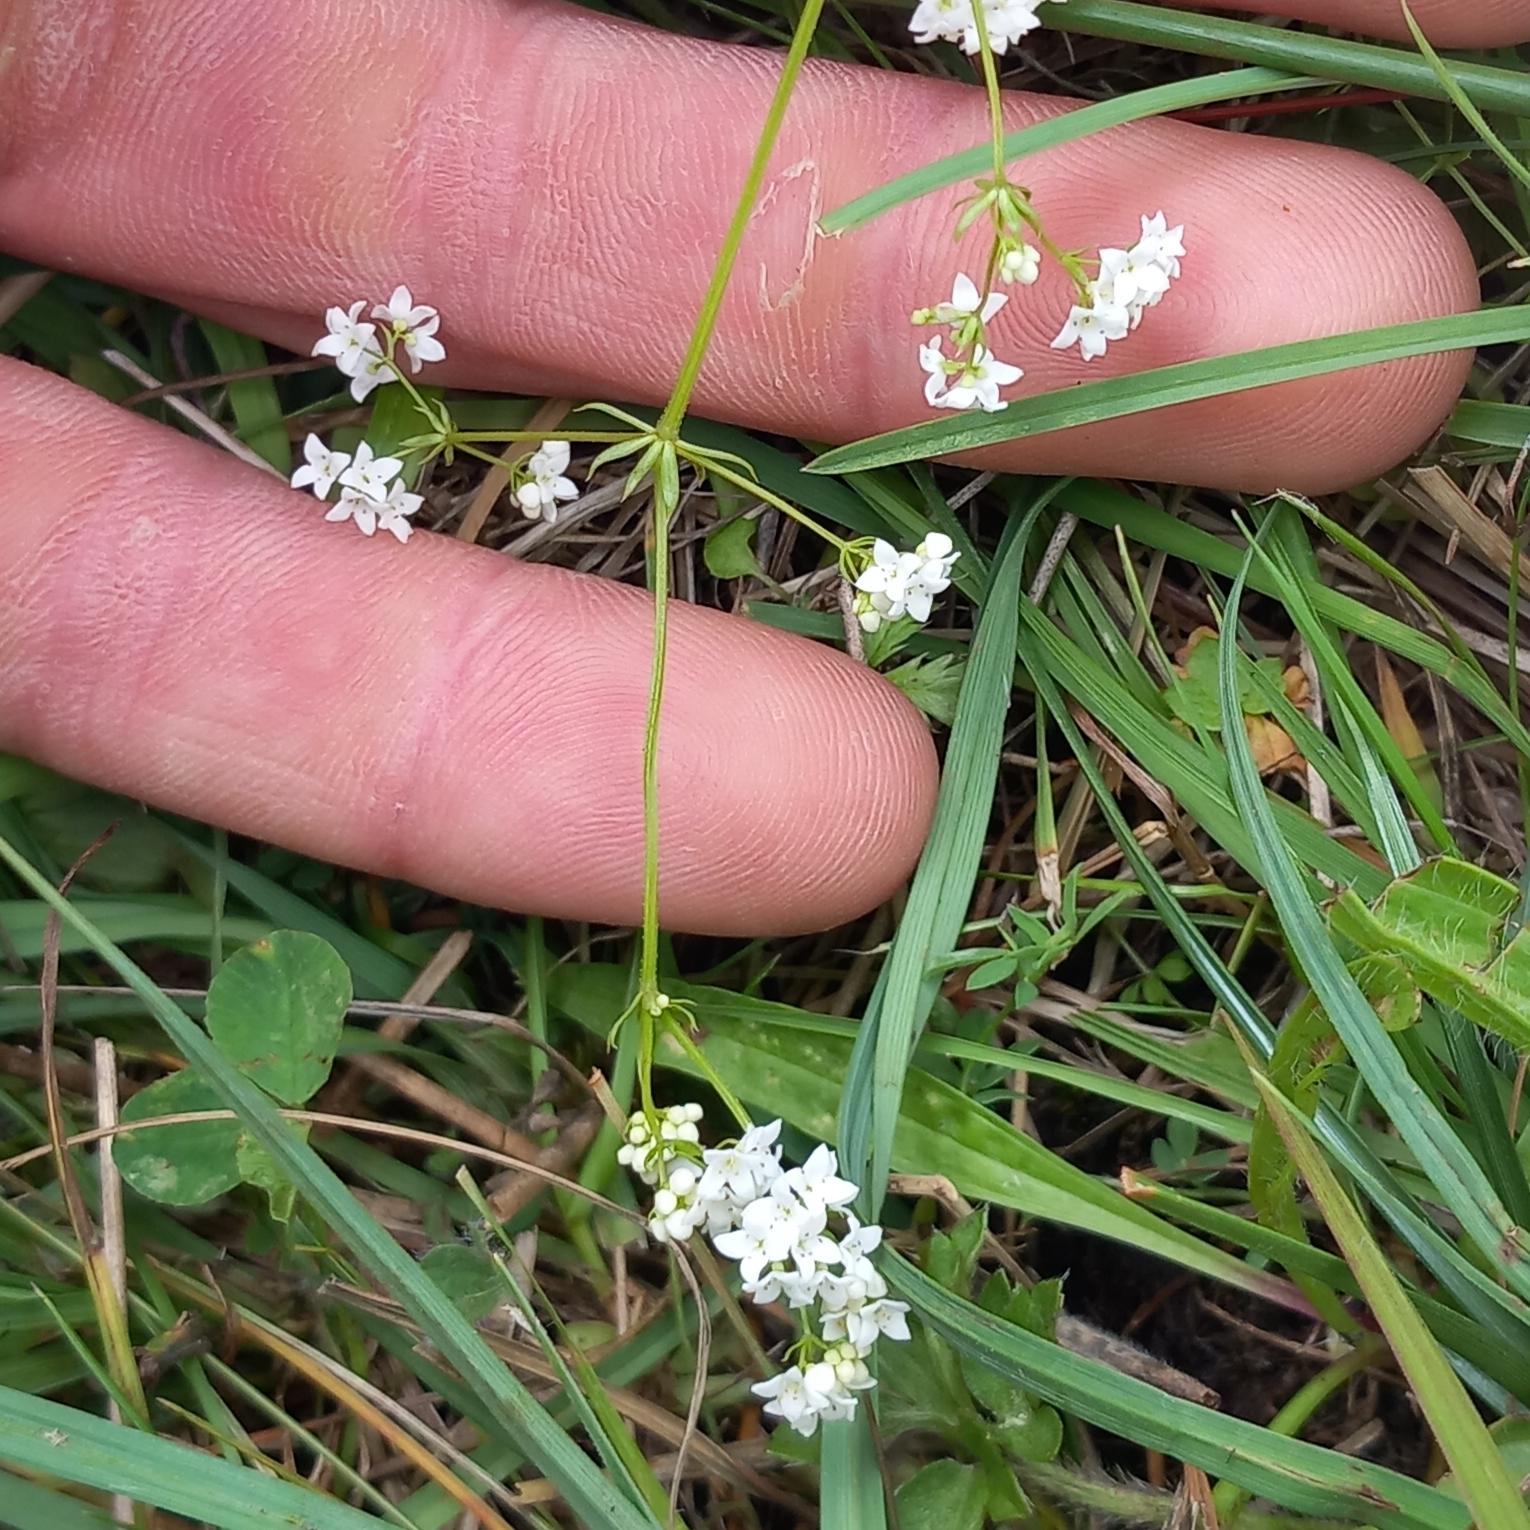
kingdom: Plantae
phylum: Tracheophyta
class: Magnoliopsida
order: Gentianales
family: Rubiaceae
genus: Galium
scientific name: Galium uliginosum
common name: Sump-snerre
